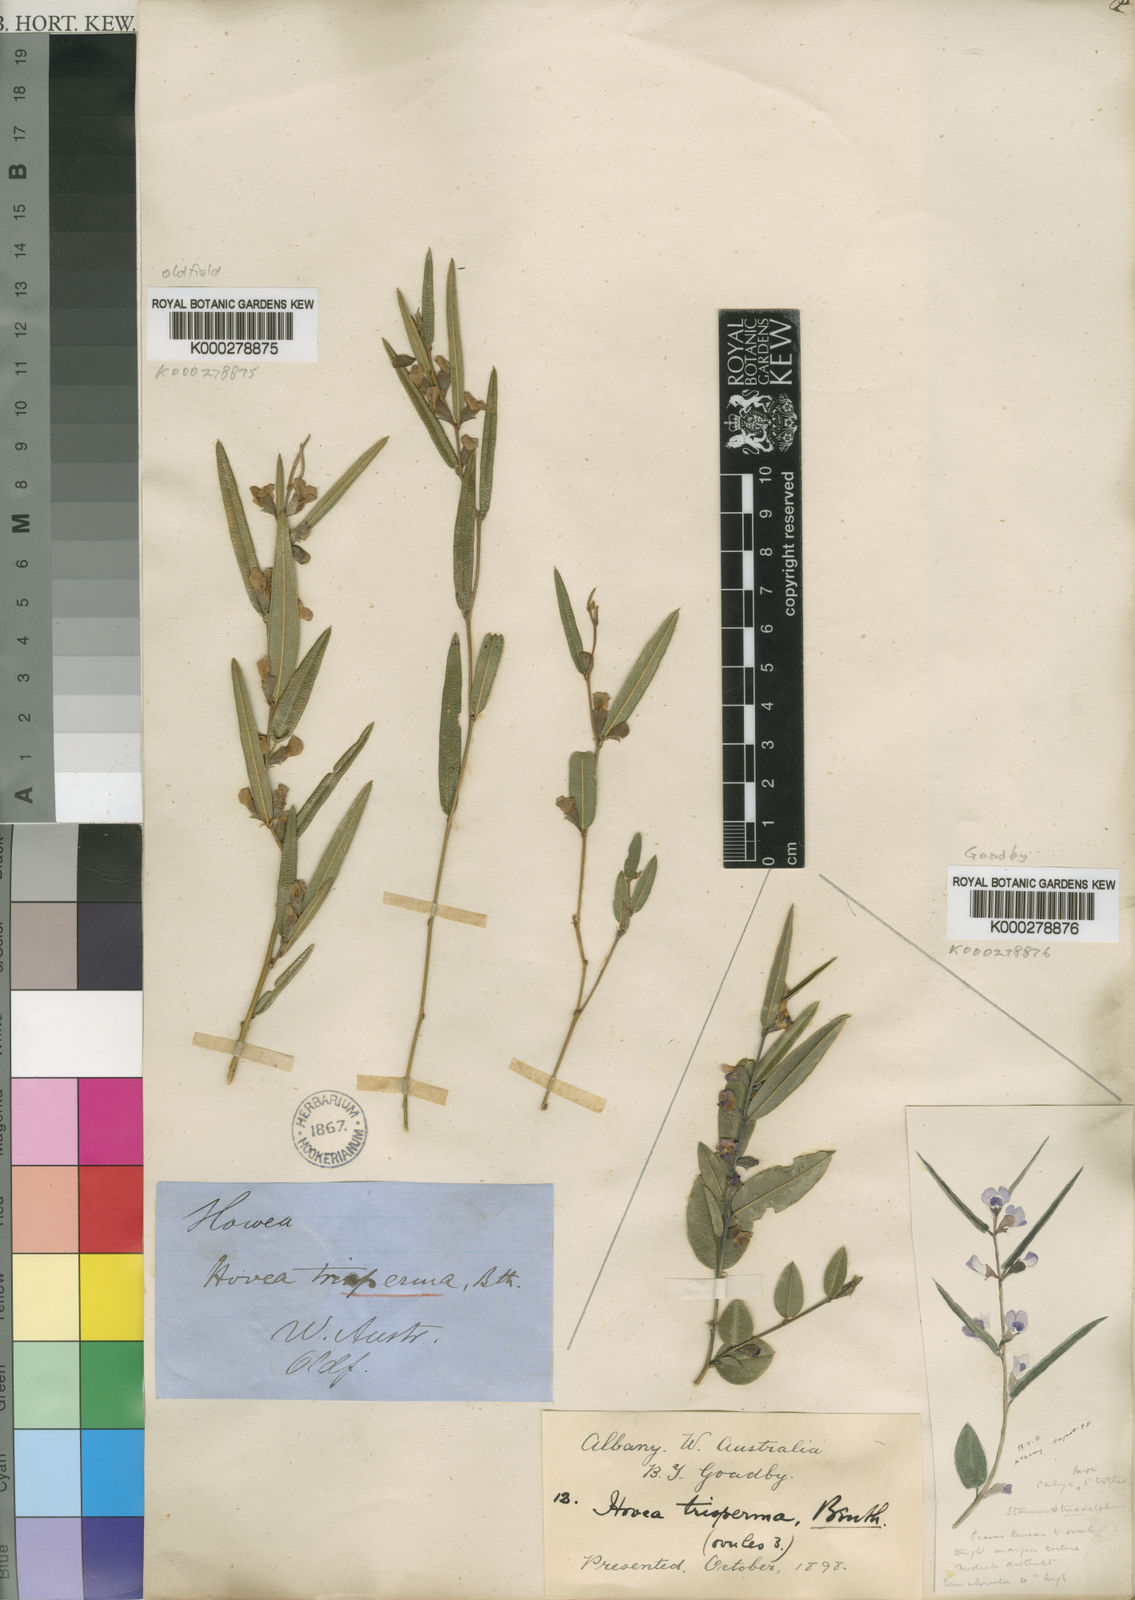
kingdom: Plantae
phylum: Tracheophyta
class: Magnoliopsida
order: Fabales
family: Fabaceae
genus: Hovea
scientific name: Hovea trisperma
